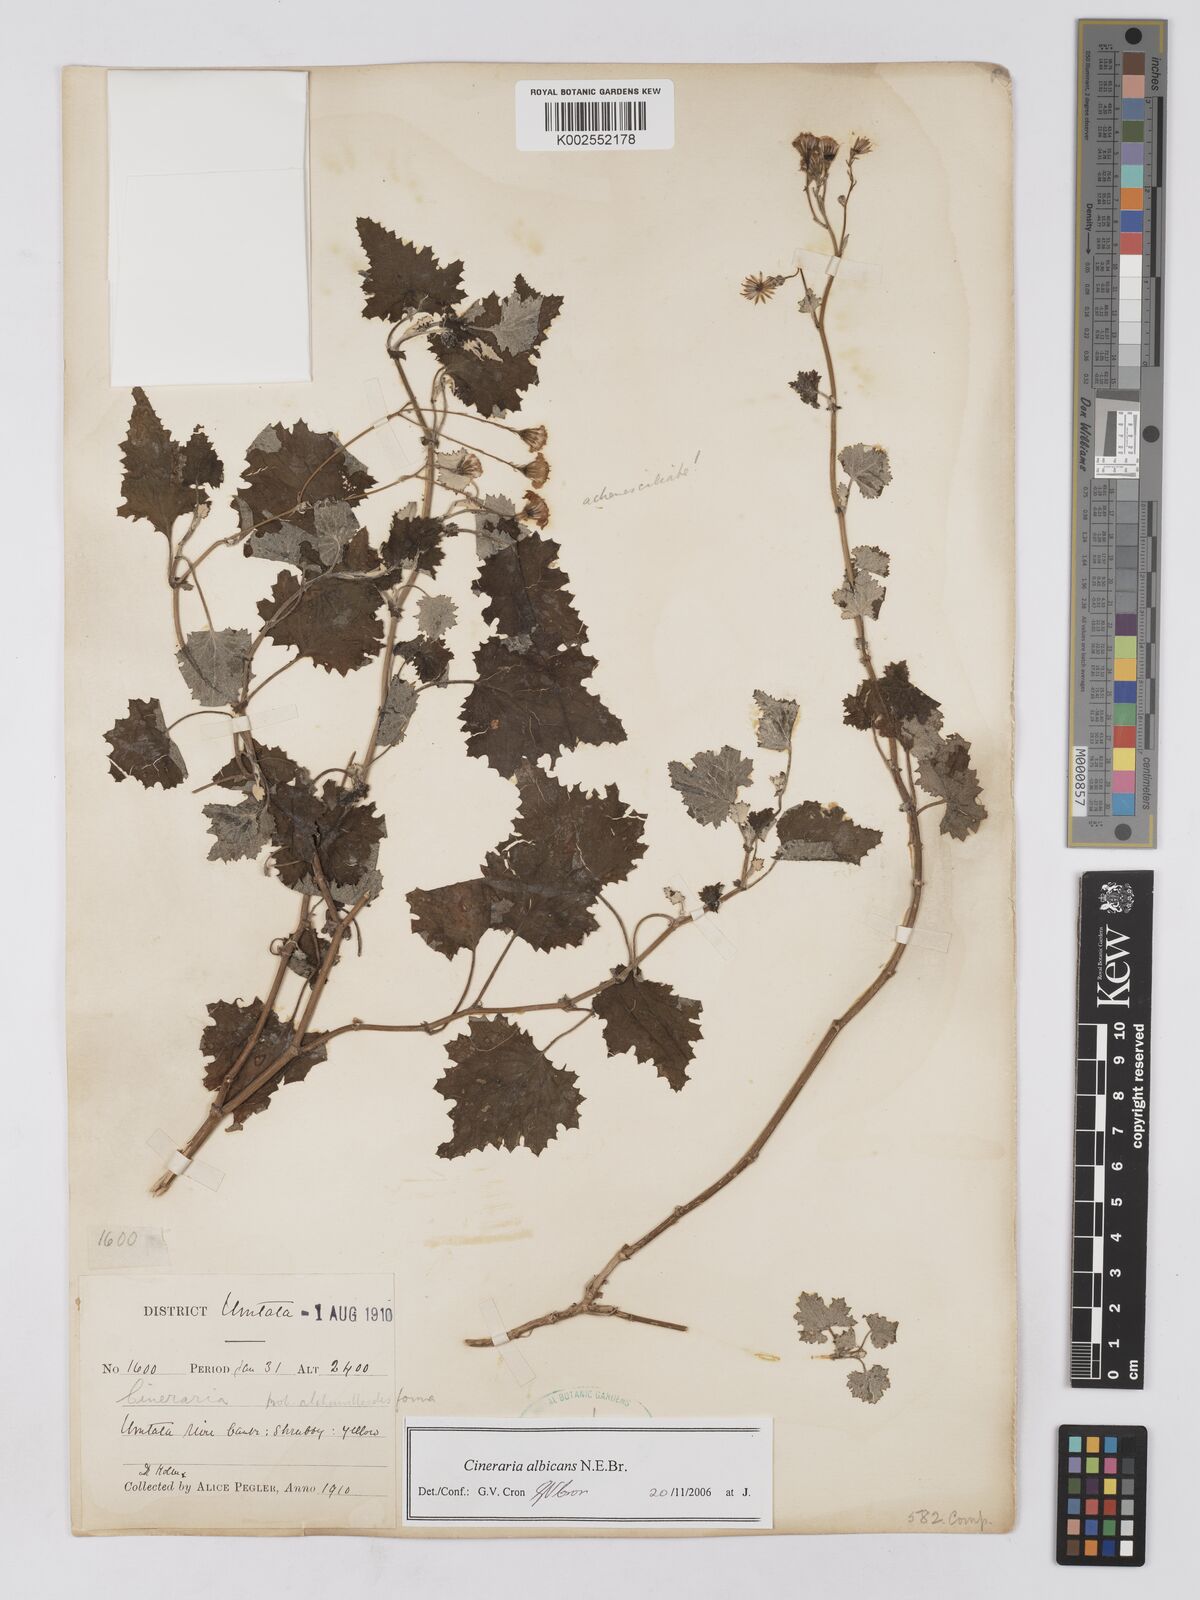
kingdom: Plantae
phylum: Tracheophyta
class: Magnoliopsida
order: Asterales
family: Asteraceae
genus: Cineraria
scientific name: Cineraria albicans
